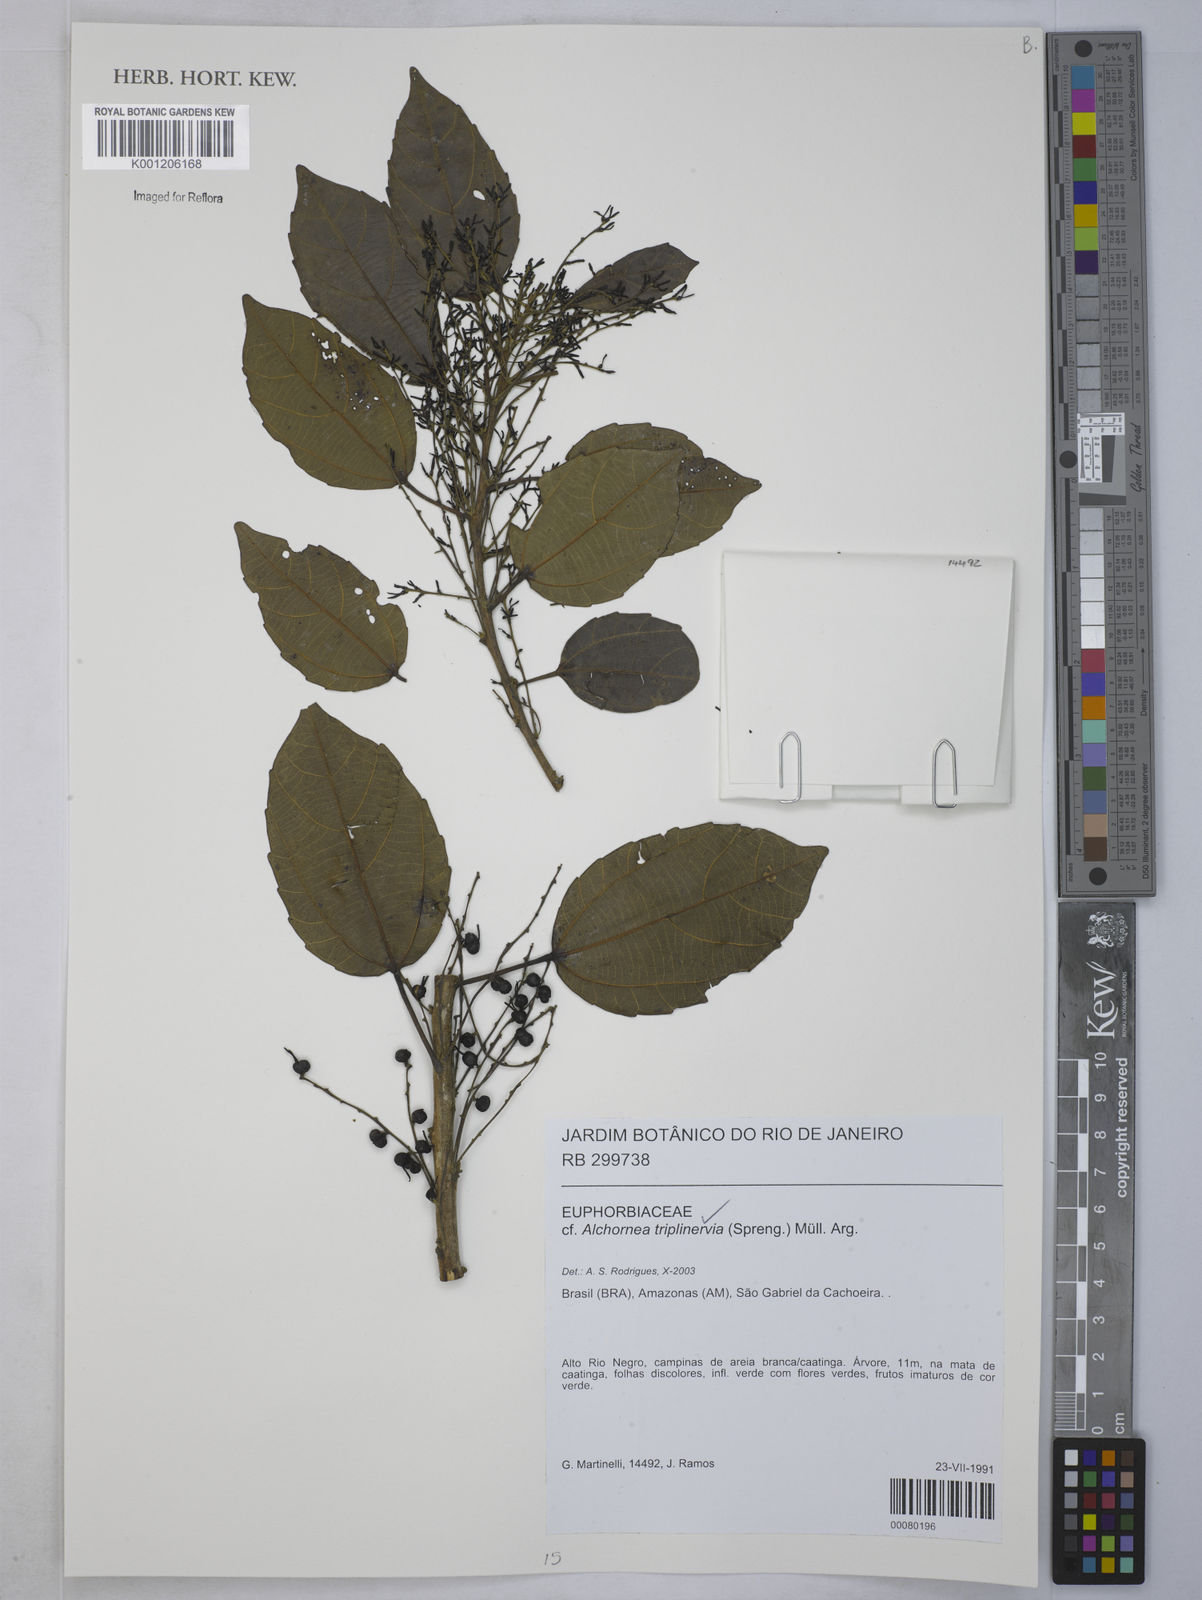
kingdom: Plantae
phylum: Tracheophyta
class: Magnoliopsida
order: Malpighiales
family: Euphorbiaceae
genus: Alchornea
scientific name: Alchornea
